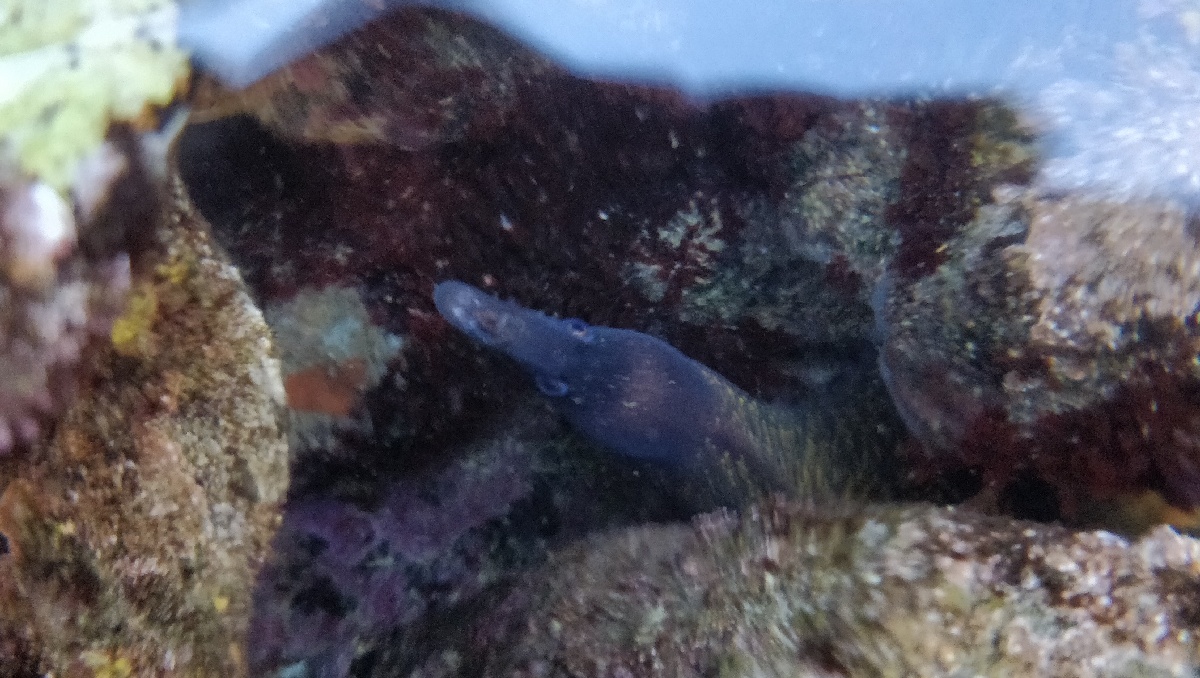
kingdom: Animalia
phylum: Chordata
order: Anguilliformes
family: Muraenidae
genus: Muraena
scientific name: Muraena helena
